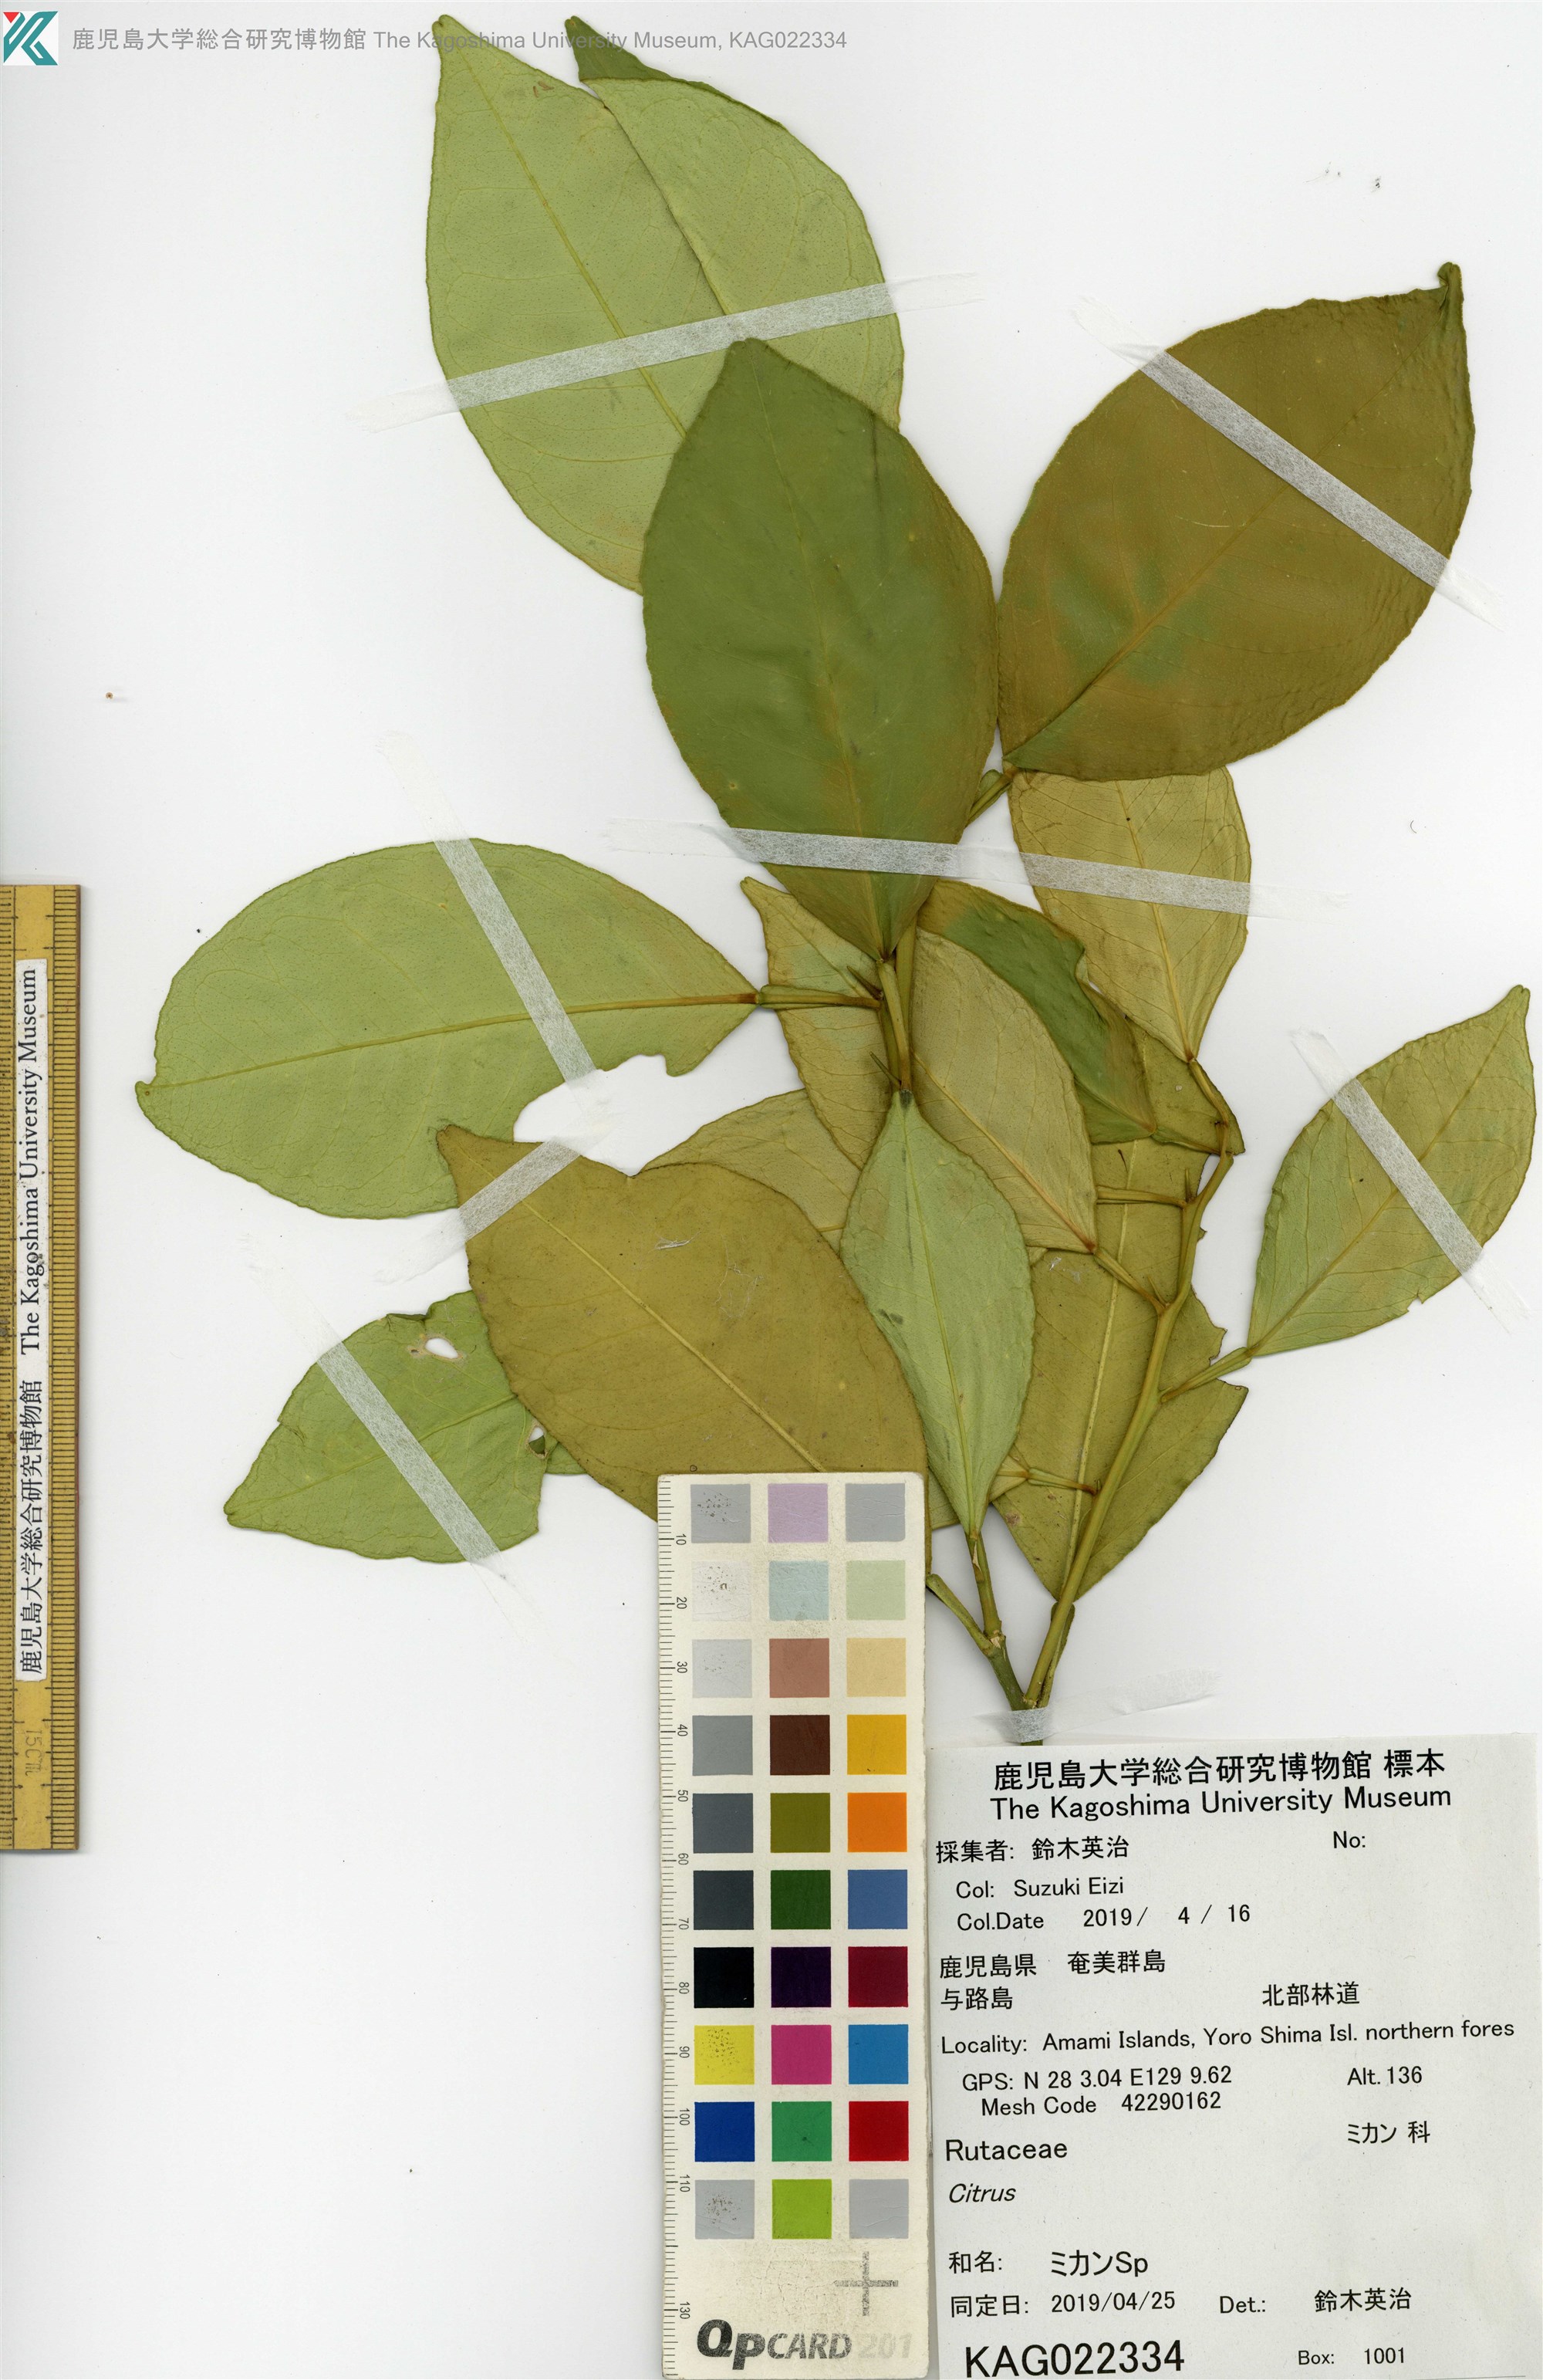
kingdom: Plantae
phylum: Tracheophyta
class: Magnoliopsida
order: Sapindales
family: Rutaceae
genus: Citrus
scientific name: Citrus
